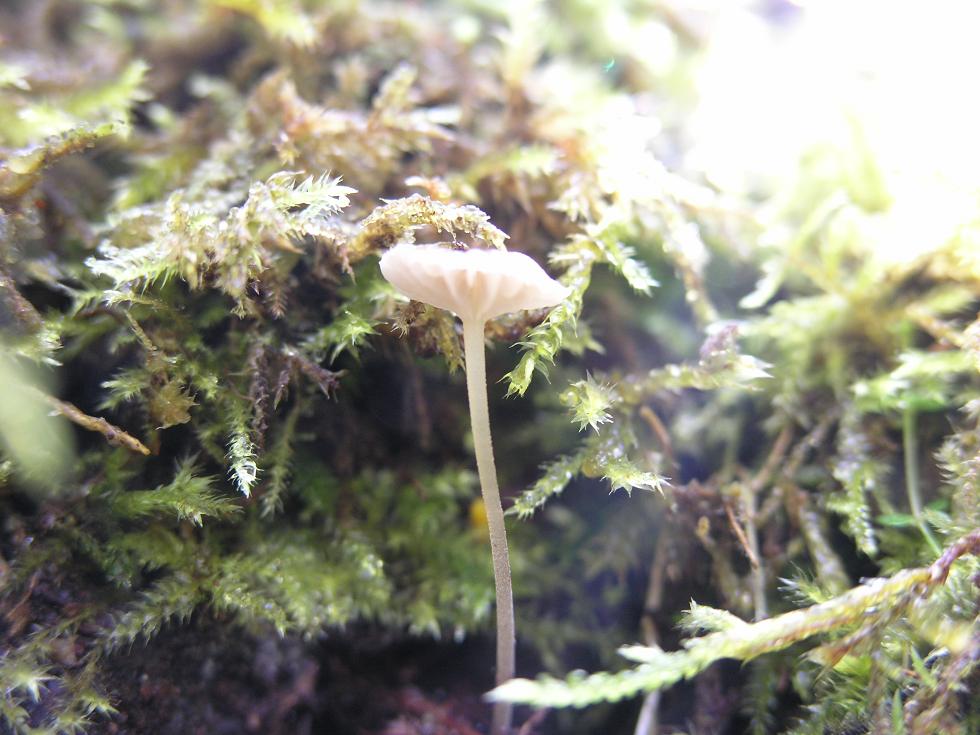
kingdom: Fungi
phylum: Basidiomycota
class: Agaricomycetes
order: Agaricales
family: Porotheleaceae
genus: Phloeomana
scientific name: Phloeomana speirea
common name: kvist-huesvamp
